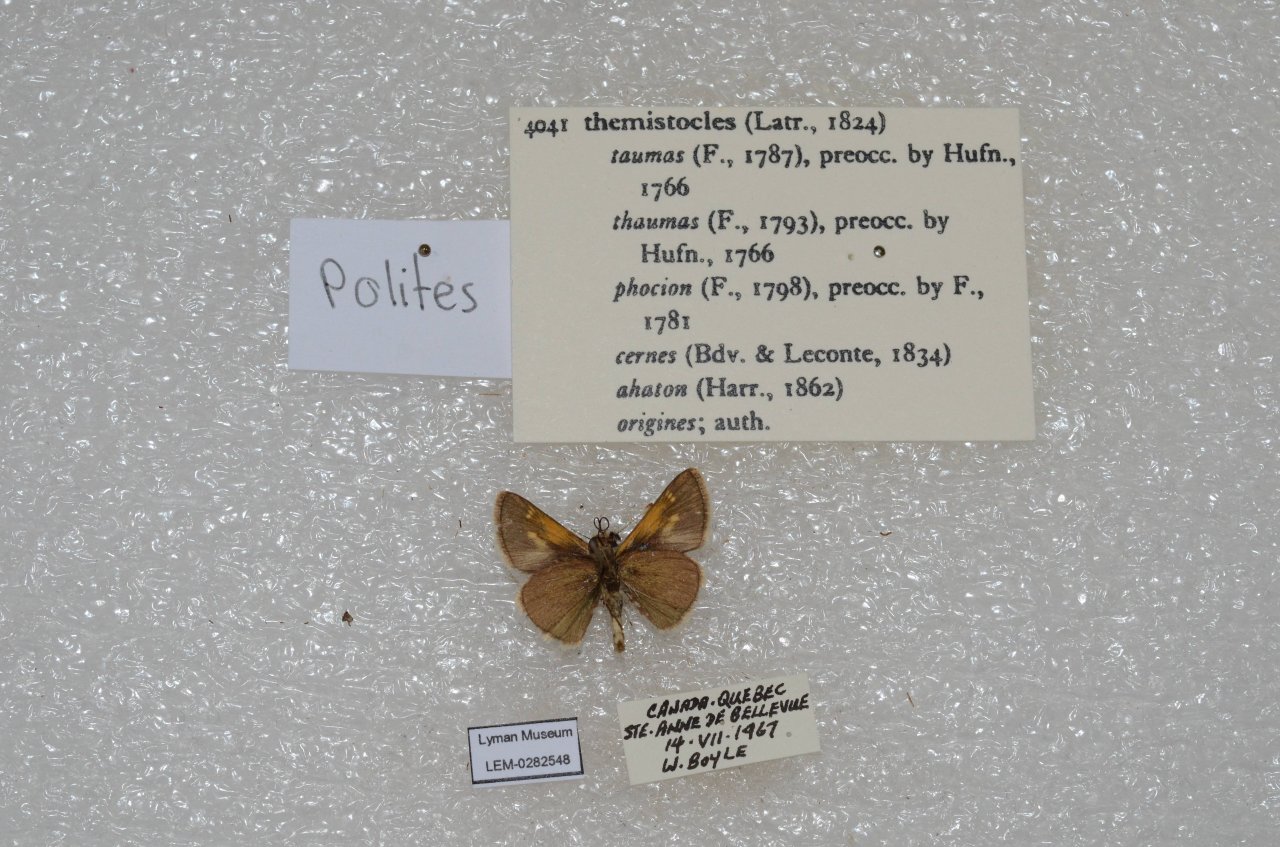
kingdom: Animalia
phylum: Arthropoda
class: Insecta
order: Lepidoptera
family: Hesperiidae
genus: Polites
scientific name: Polites themistocles
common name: Tawny-edged Skipper
